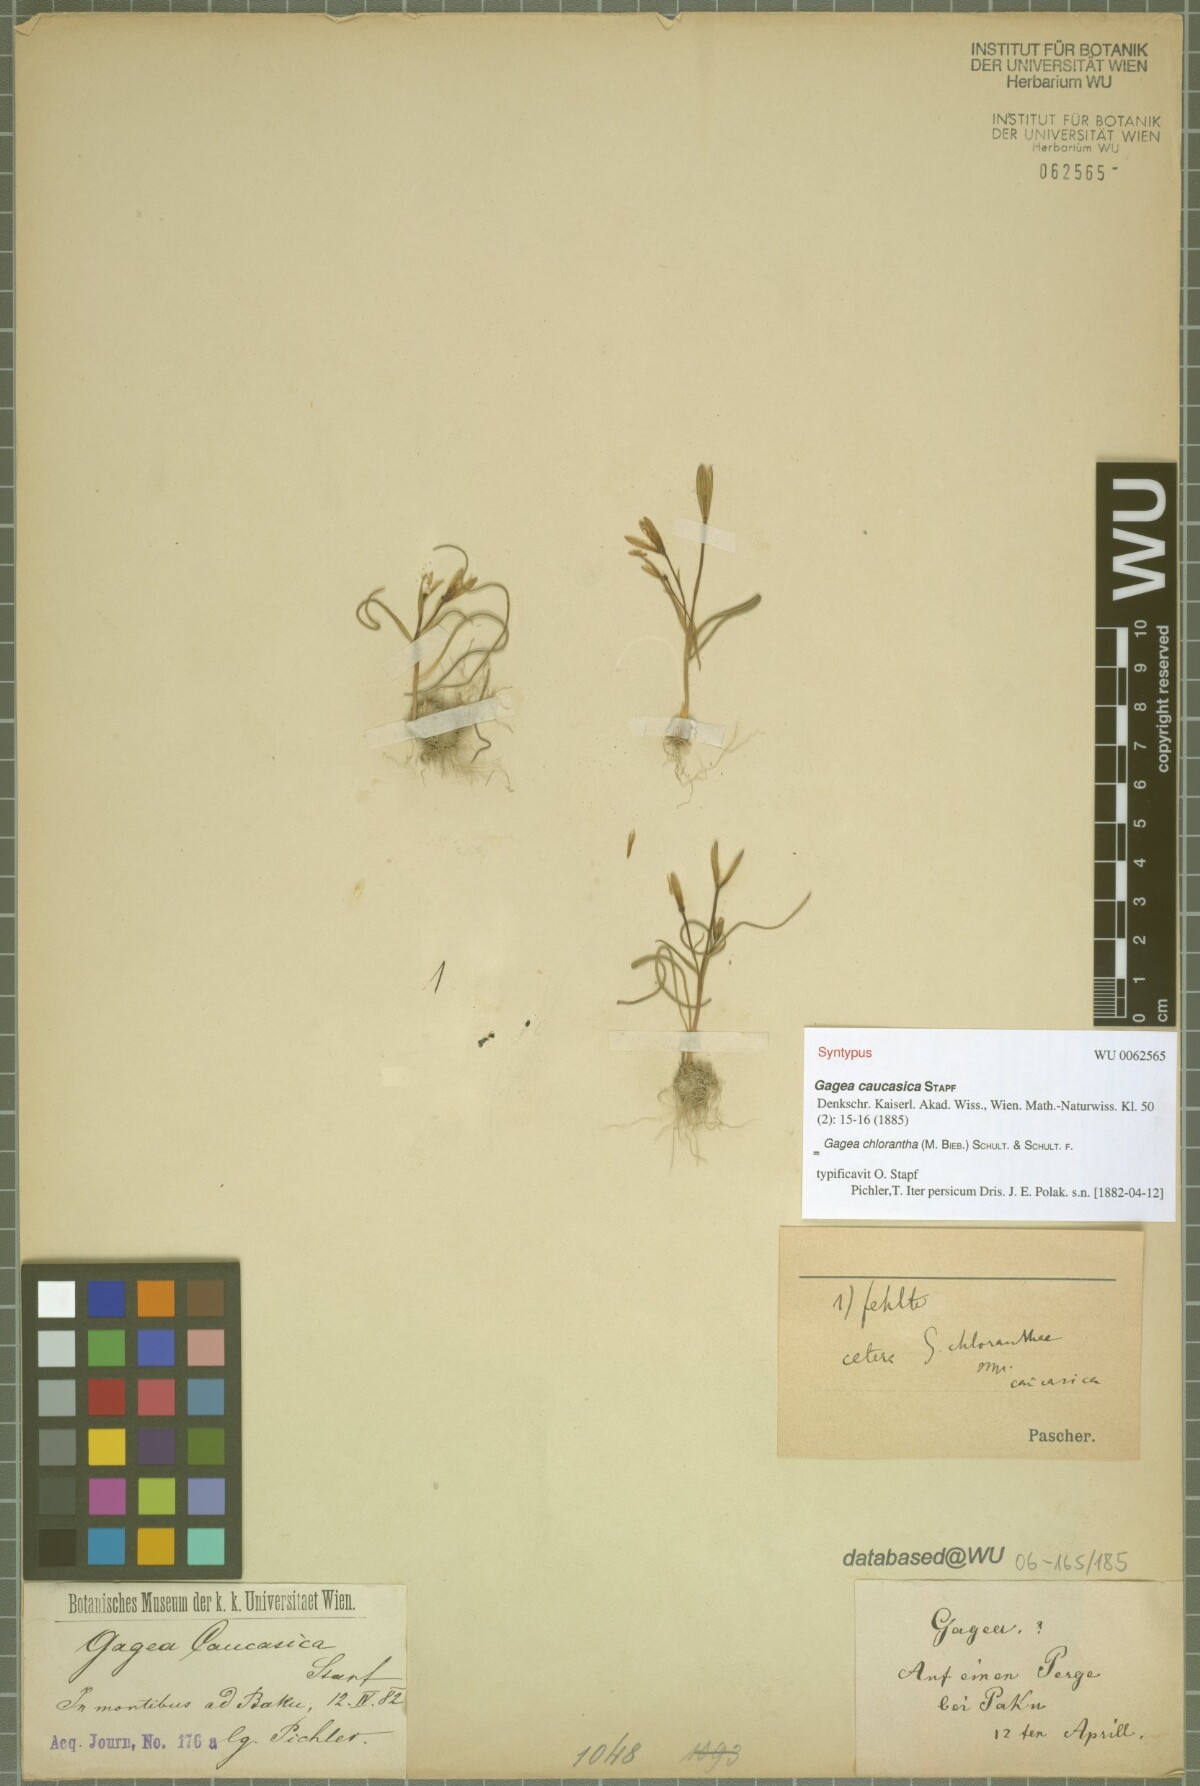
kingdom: Plantae
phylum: Tracheophyta
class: Liliopsida
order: Liliales
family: Liliaceae
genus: Gagea
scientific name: Gagea chlorantha
